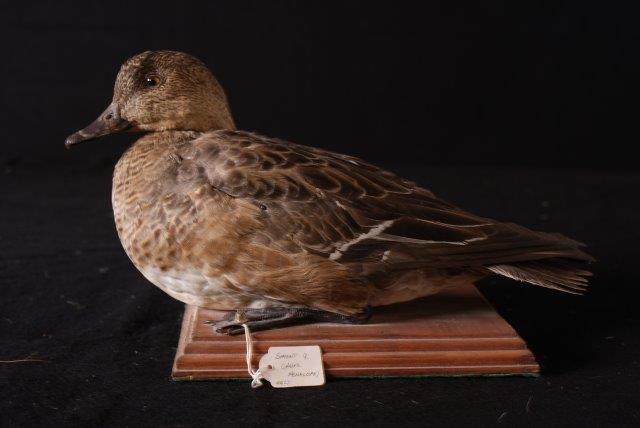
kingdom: Animalia
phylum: Chordata
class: Aves
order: Anseriformes
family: Anatidae
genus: Mareca
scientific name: Mareca penelope
